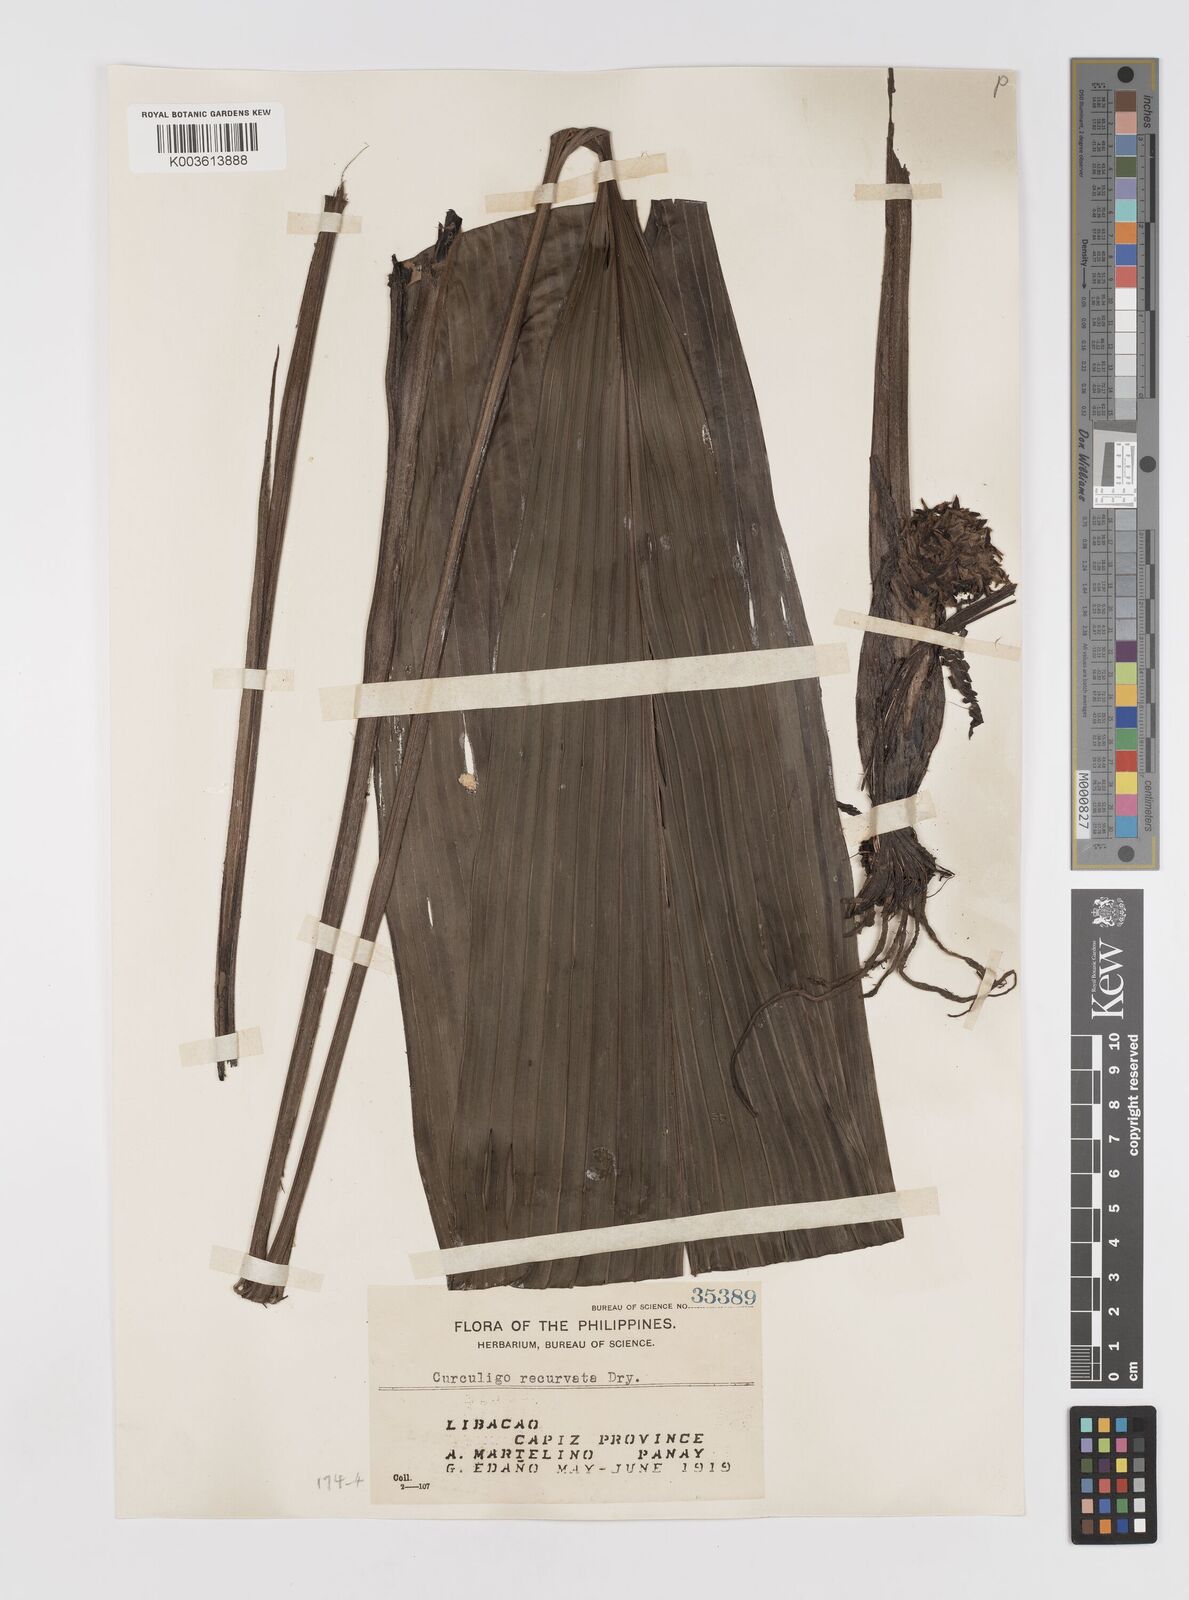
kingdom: Plantae
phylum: Tracheophyta
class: Liliopsida
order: Asparagales
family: Hypoxidaceae
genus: Curculigo
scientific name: Curculigo capitulata
